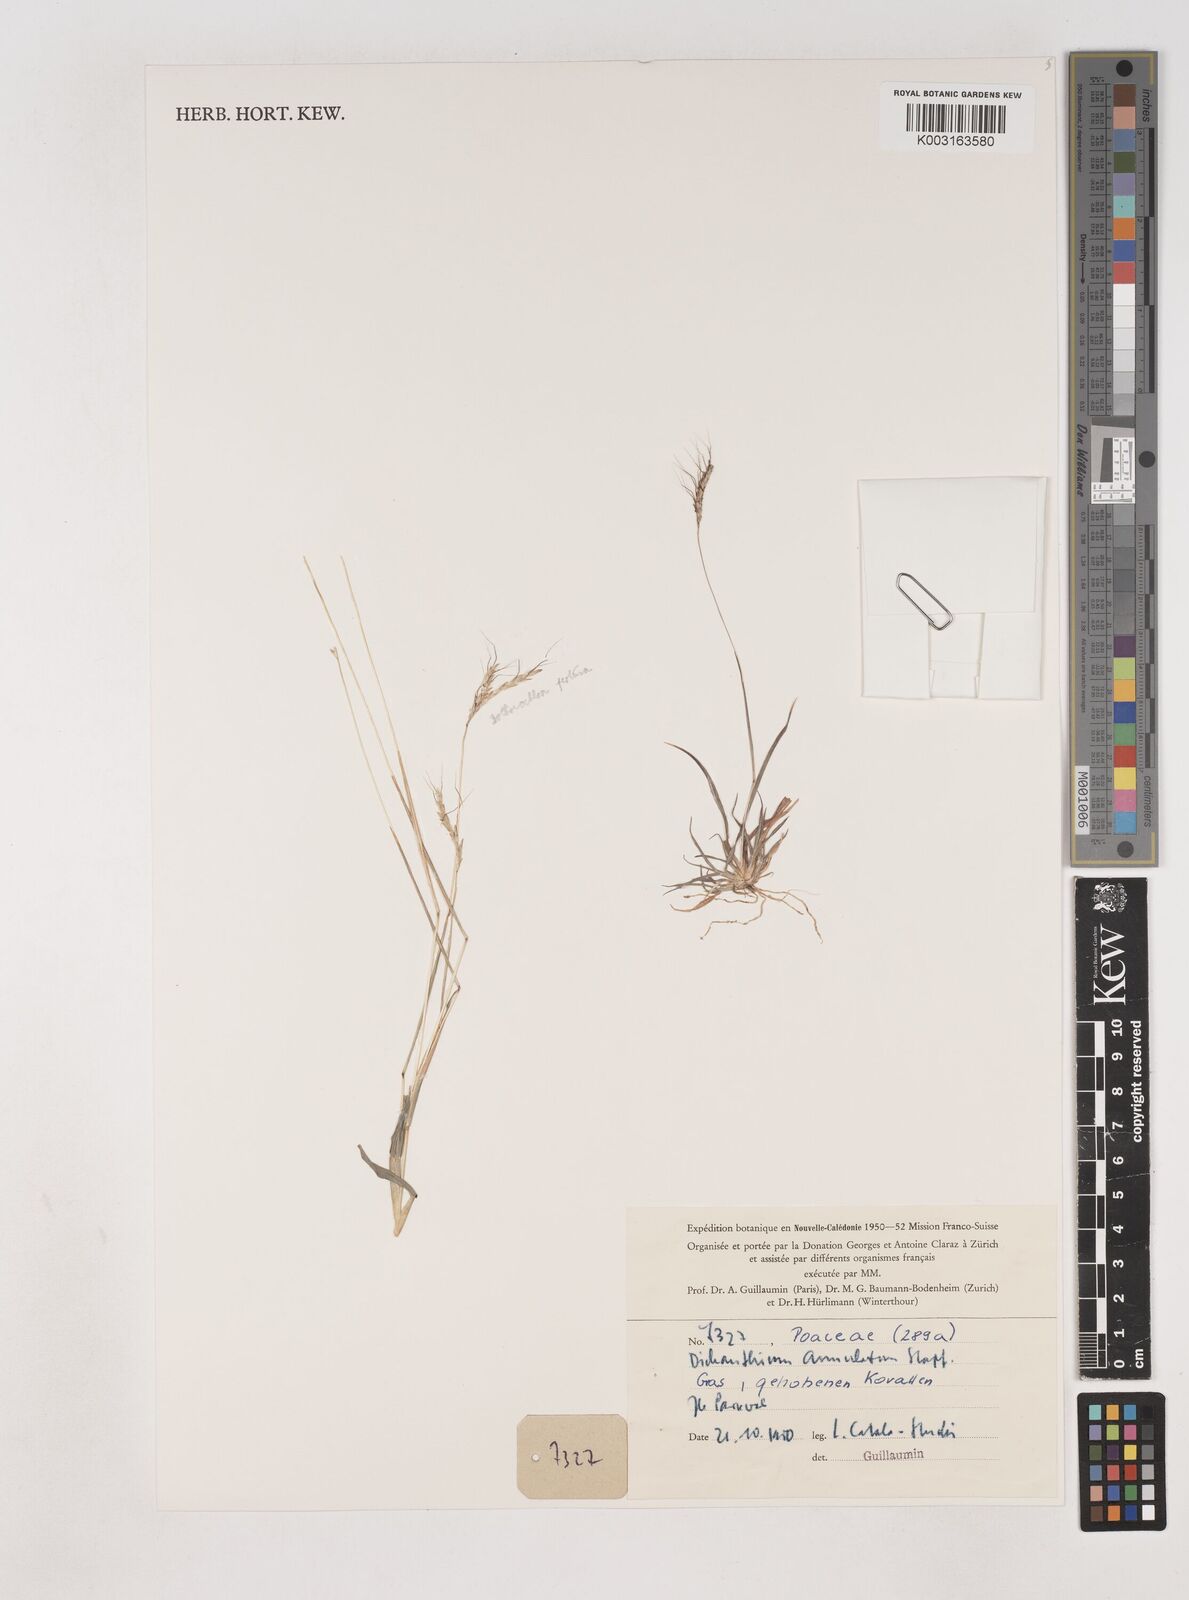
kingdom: Plantae
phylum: Tracheophyta
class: Liliopsida
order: Poales
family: Poaceae
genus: Dichanthium
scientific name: Dichanthium annulatum
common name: Kleberg's bluestem
